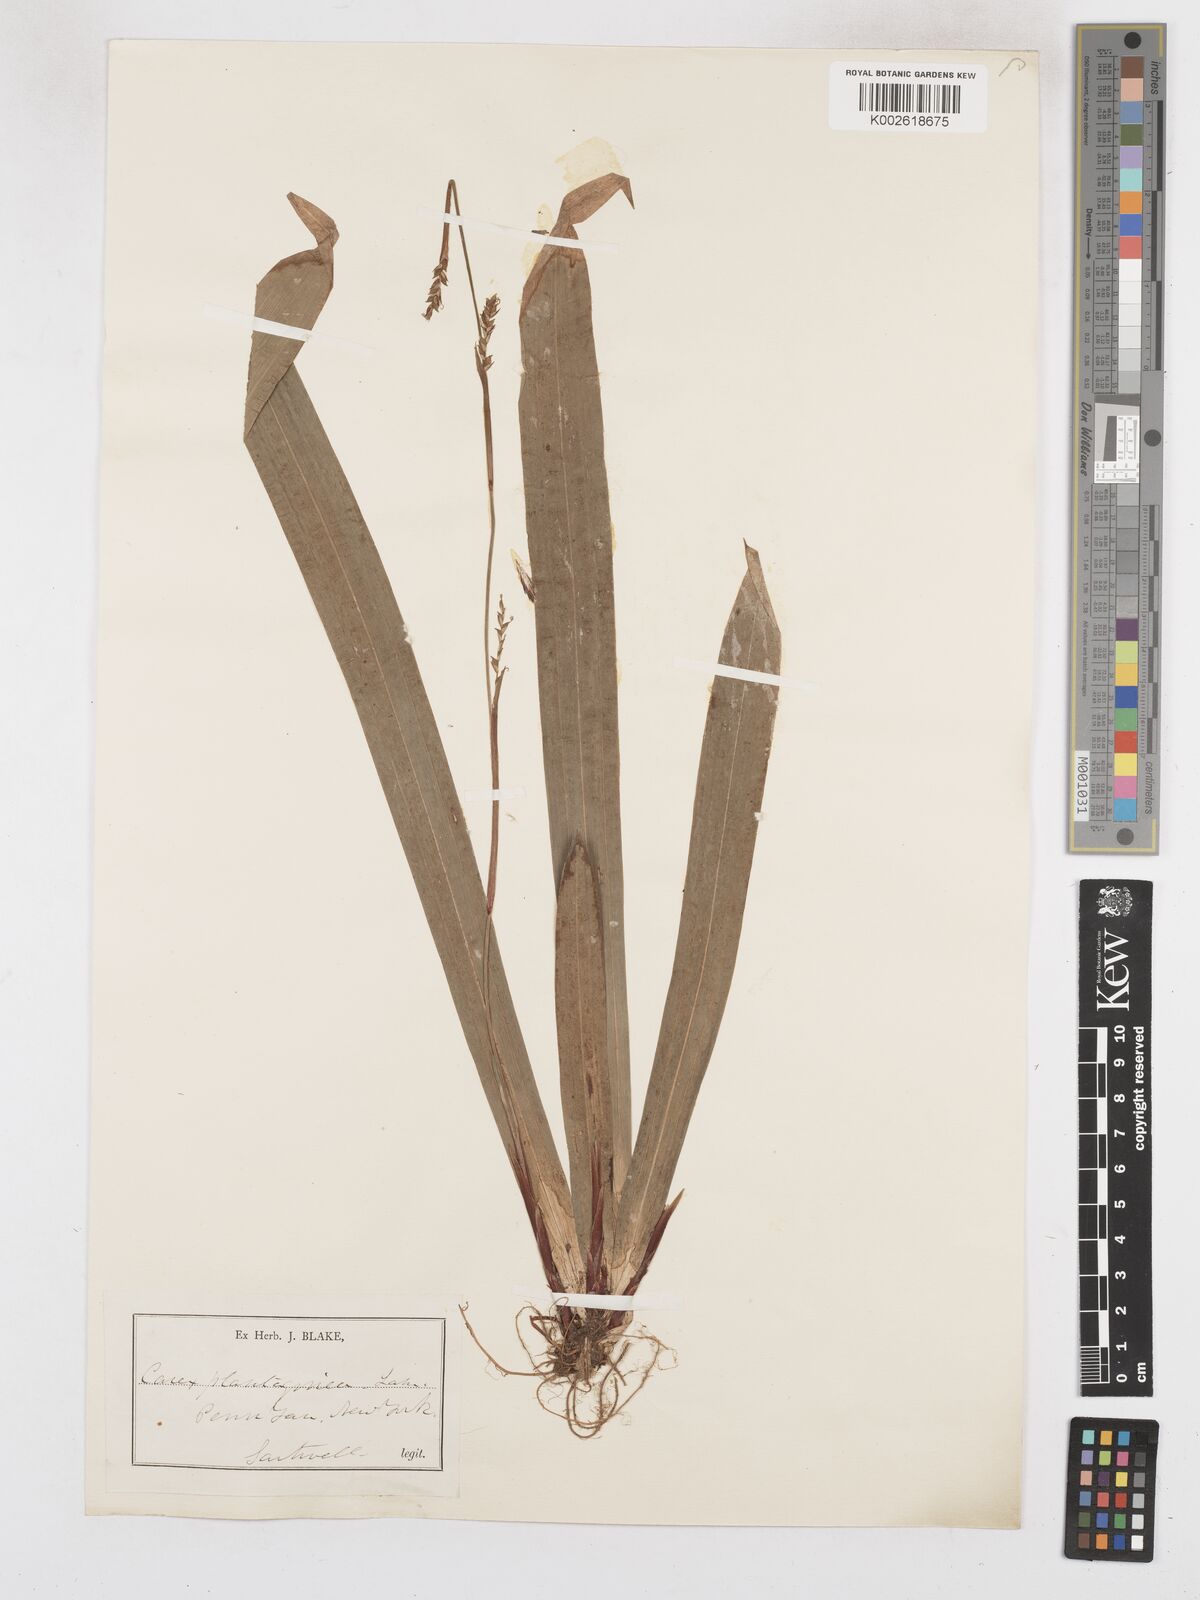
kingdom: Plantae
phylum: Tracheophyta
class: Liliopsida
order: Poales
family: Cyperaceae
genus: Carex
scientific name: Carex plantaginea
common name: Plantain-leaved sedge
